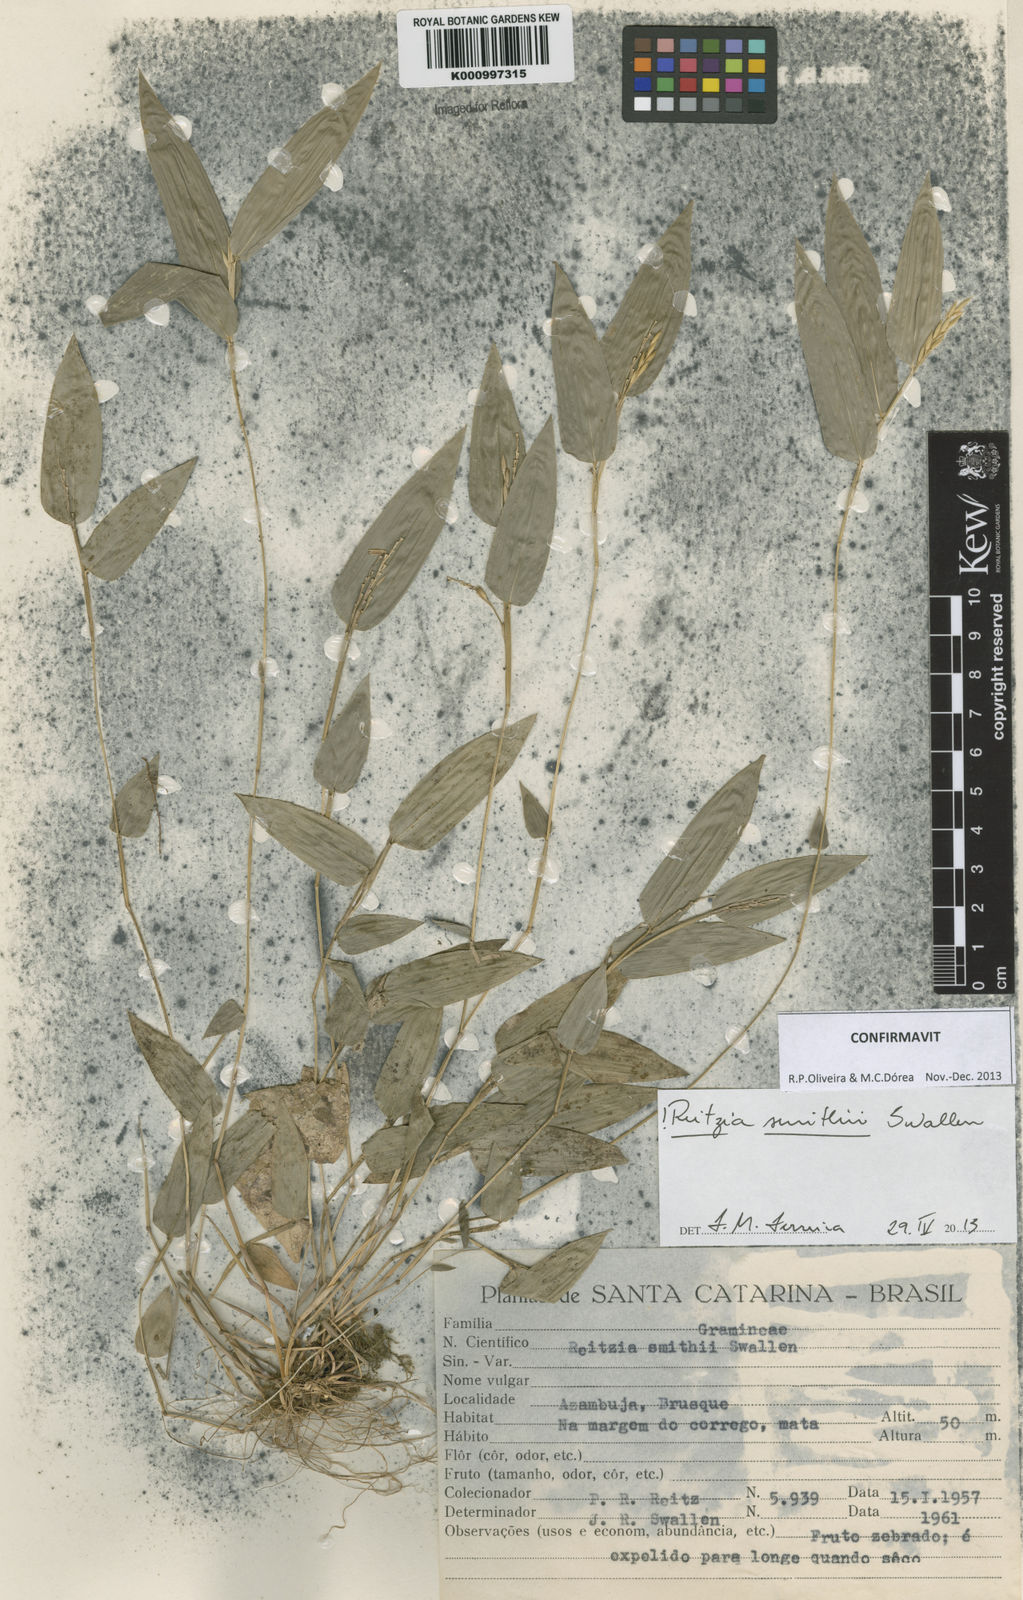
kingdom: Plantae
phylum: Tracheophyta
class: Liliopsida
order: Poales
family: Poaceae
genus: Reitzia
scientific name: Reitzia smithii
